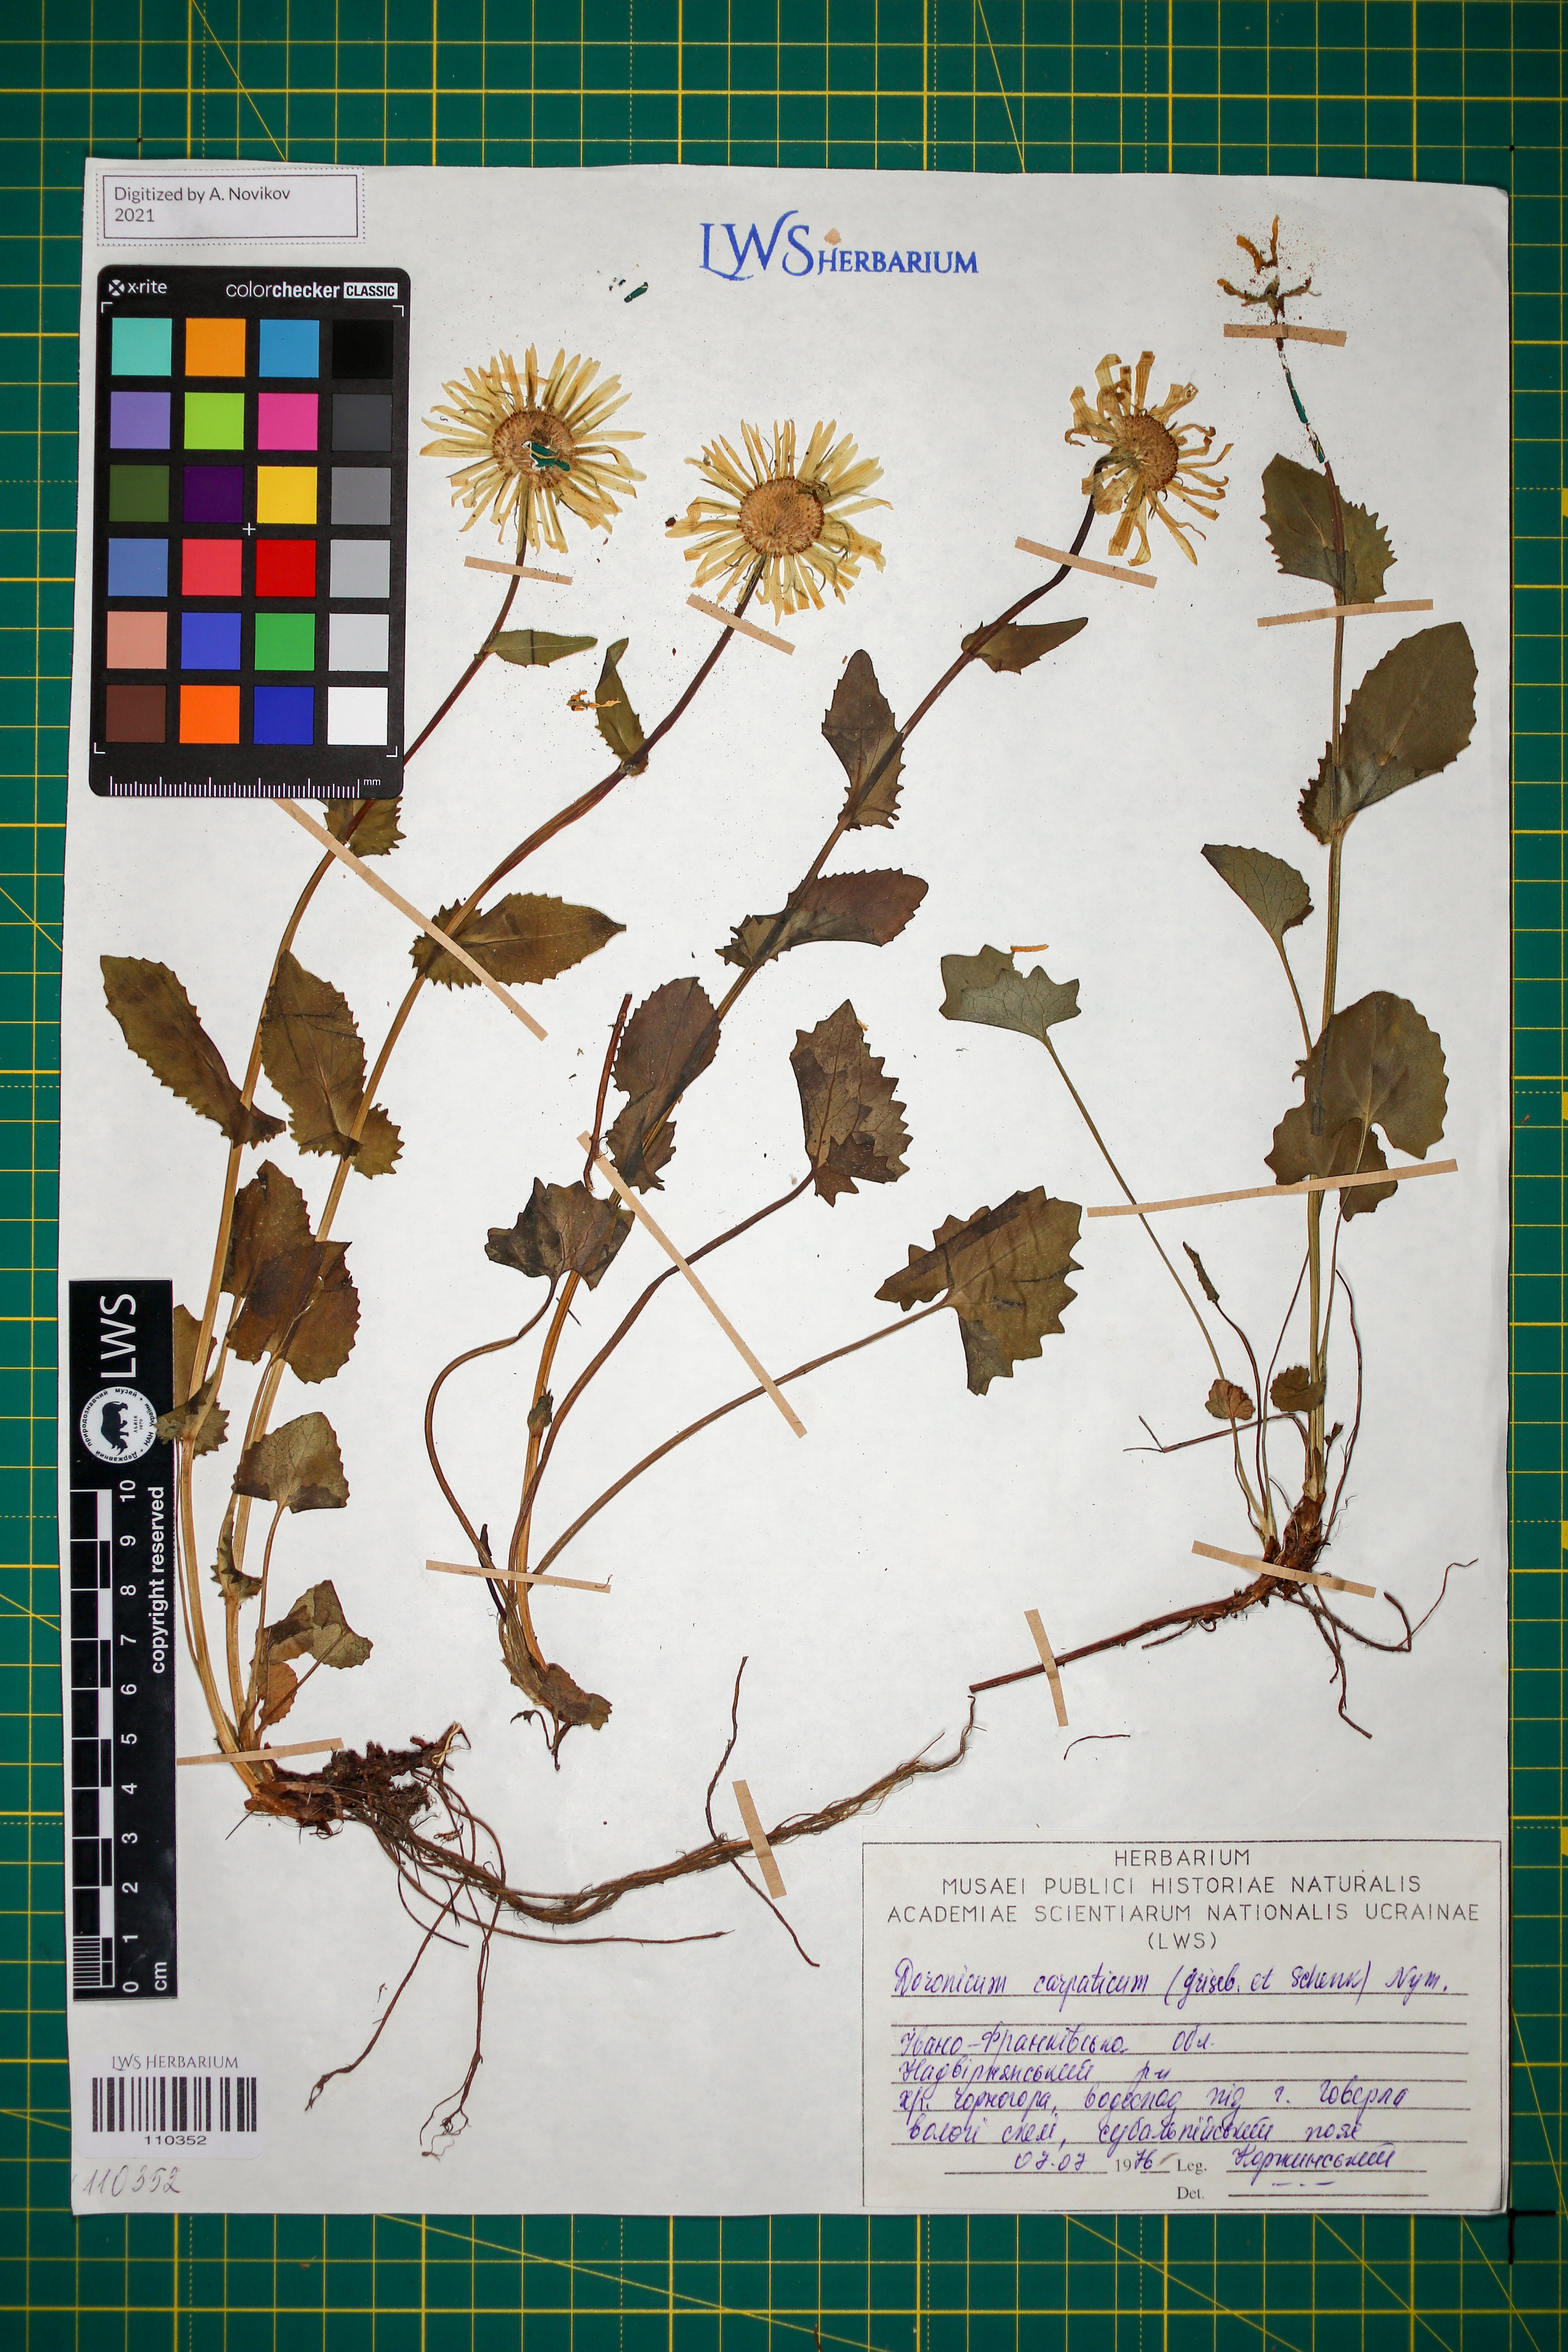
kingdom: Plantae
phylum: Tracheophyta
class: Magnoliopsida
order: Asterales
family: Asteraceae
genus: Doronicum
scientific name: Doronicum carpaticum
